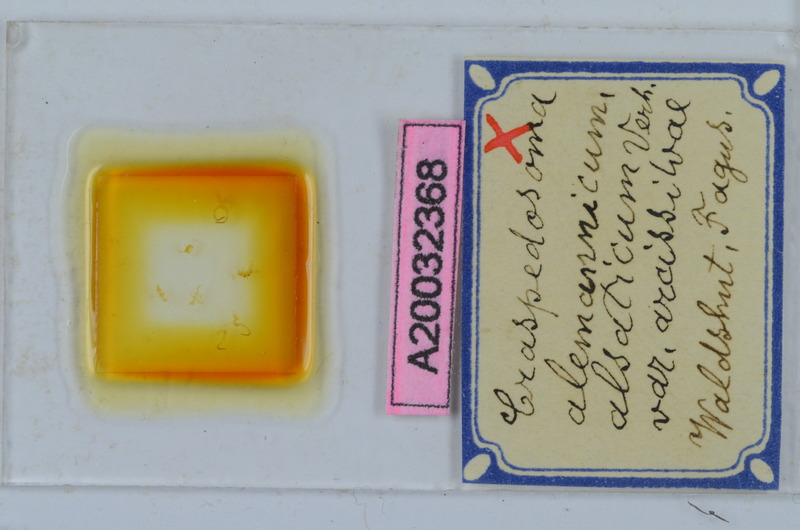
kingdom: Animalia
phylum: Arthropoda
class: Diplopoda
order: Chordeumatida
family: Craspedosomatidae
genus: Craspedosoma
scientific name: Craspedosoma rawlinsii
